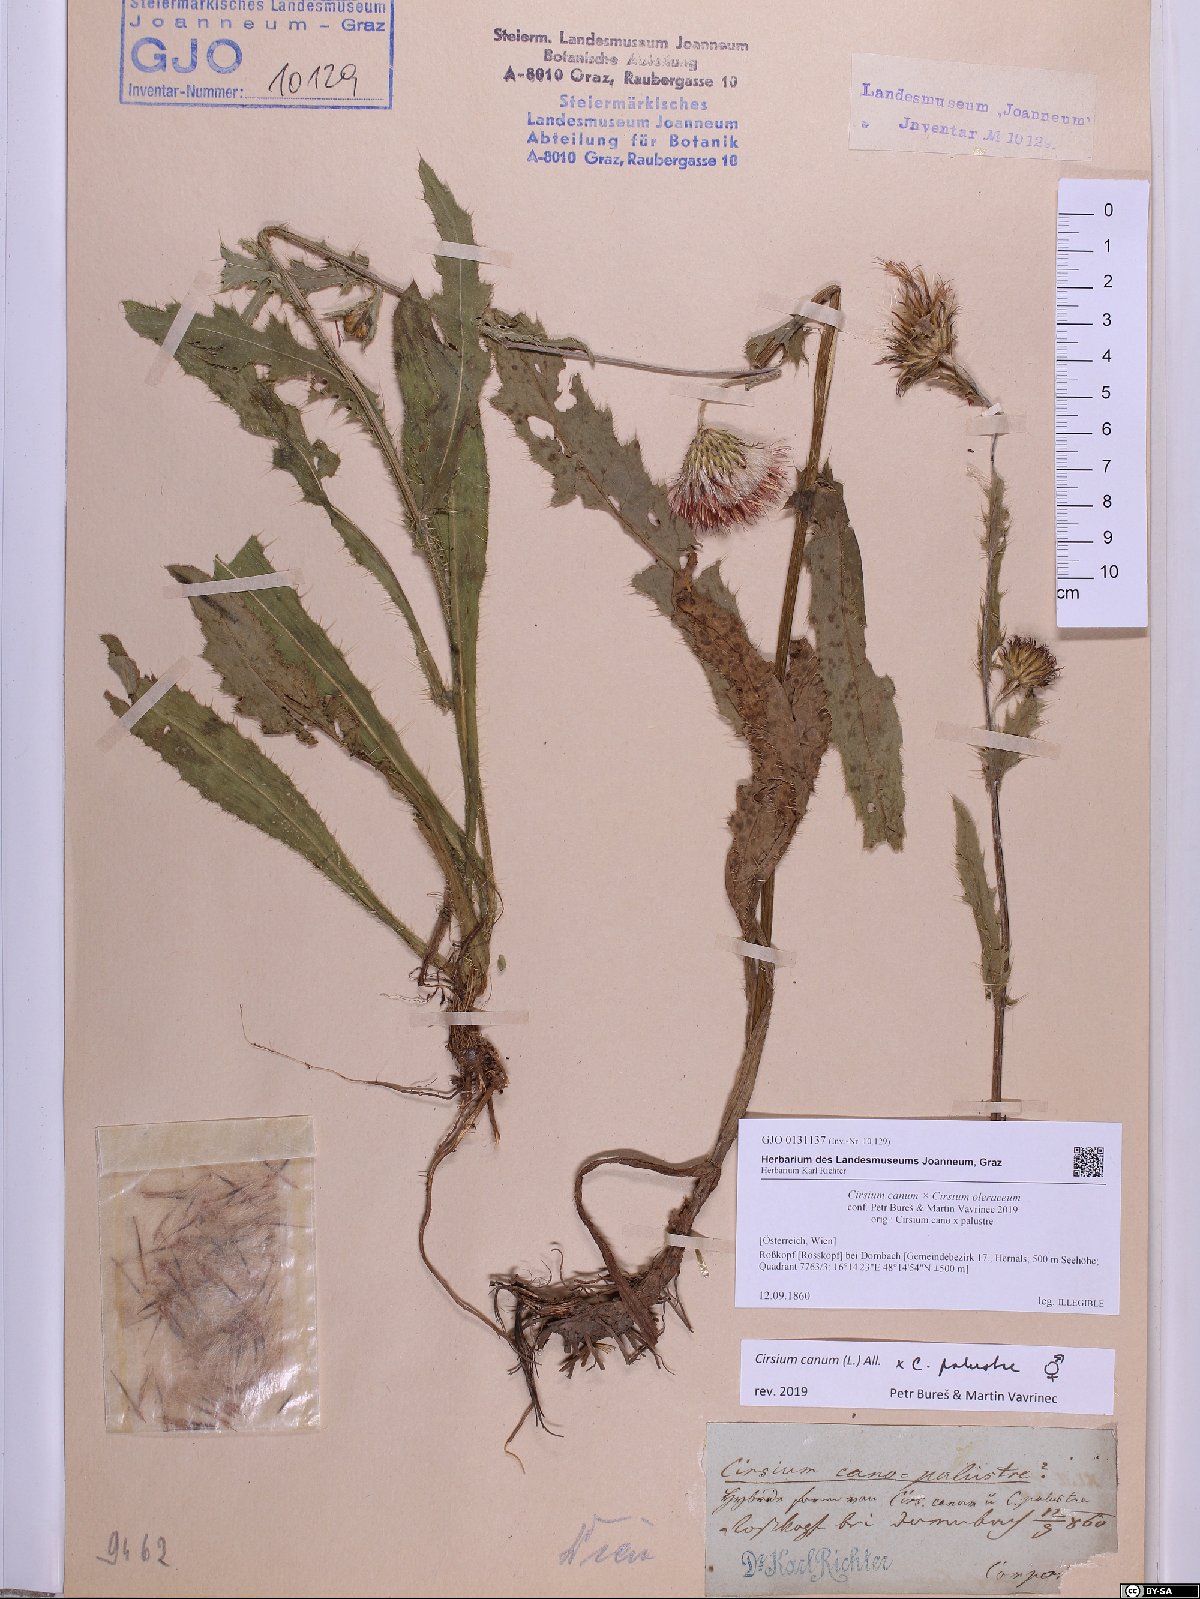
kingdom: Plantae
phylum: Tracheophyta
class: Magnoliopsida
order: Asterales
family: Asteraceae
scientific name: Asteraceae
